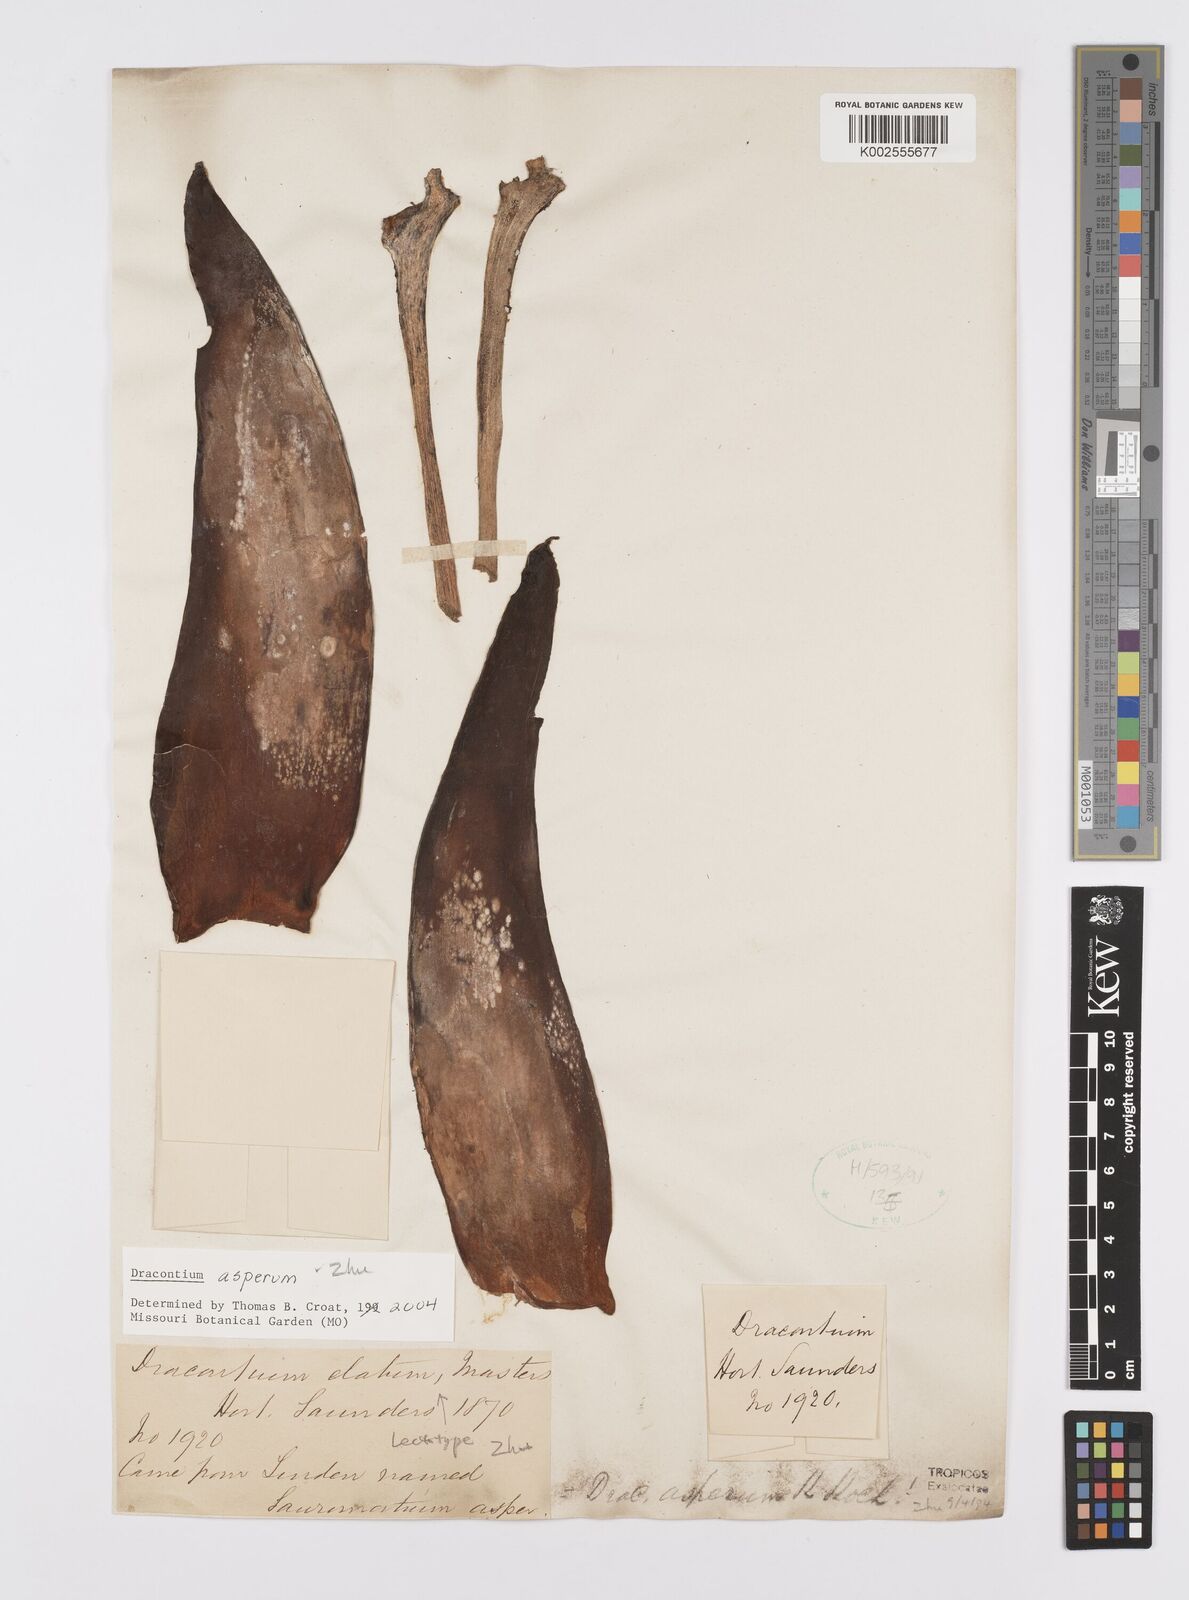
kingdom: Plantae
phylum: Tracheophyta
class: Liliopsida
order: Alismatales
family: Araceae
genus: Dracontium
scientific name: Dracontium asperum
